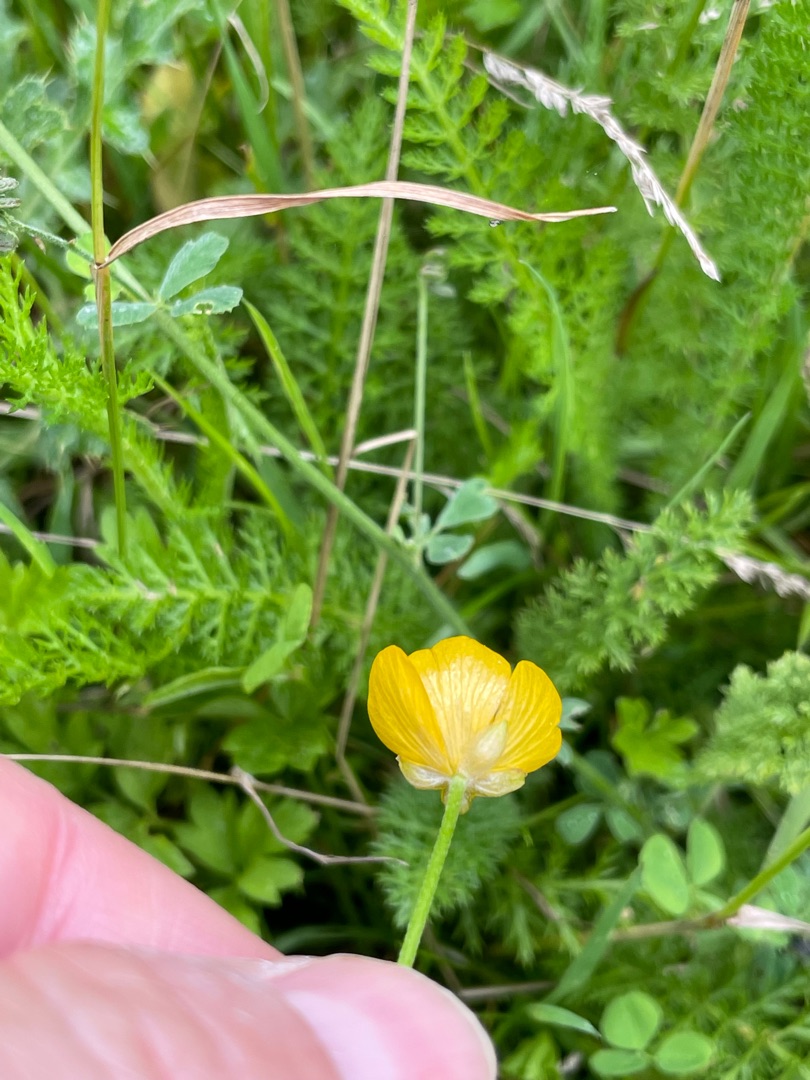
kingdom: Plantae
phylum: Tracheophyta
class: Magnoliopsida
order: Ranunculales
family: Ranunculaceae
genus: Ranunculus
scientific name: Ranunculus repens
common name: Lav ranunkel
